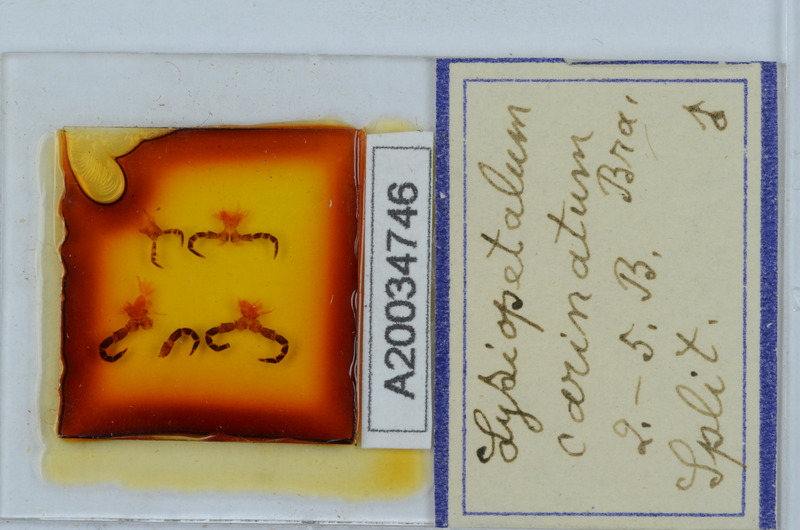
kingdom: Animalia
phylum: Arthropoda
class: Diplopoda
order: Callipodida
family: Schizopetalidae
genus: Acanthopetalum
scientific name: Acanthopetalum carinatum
